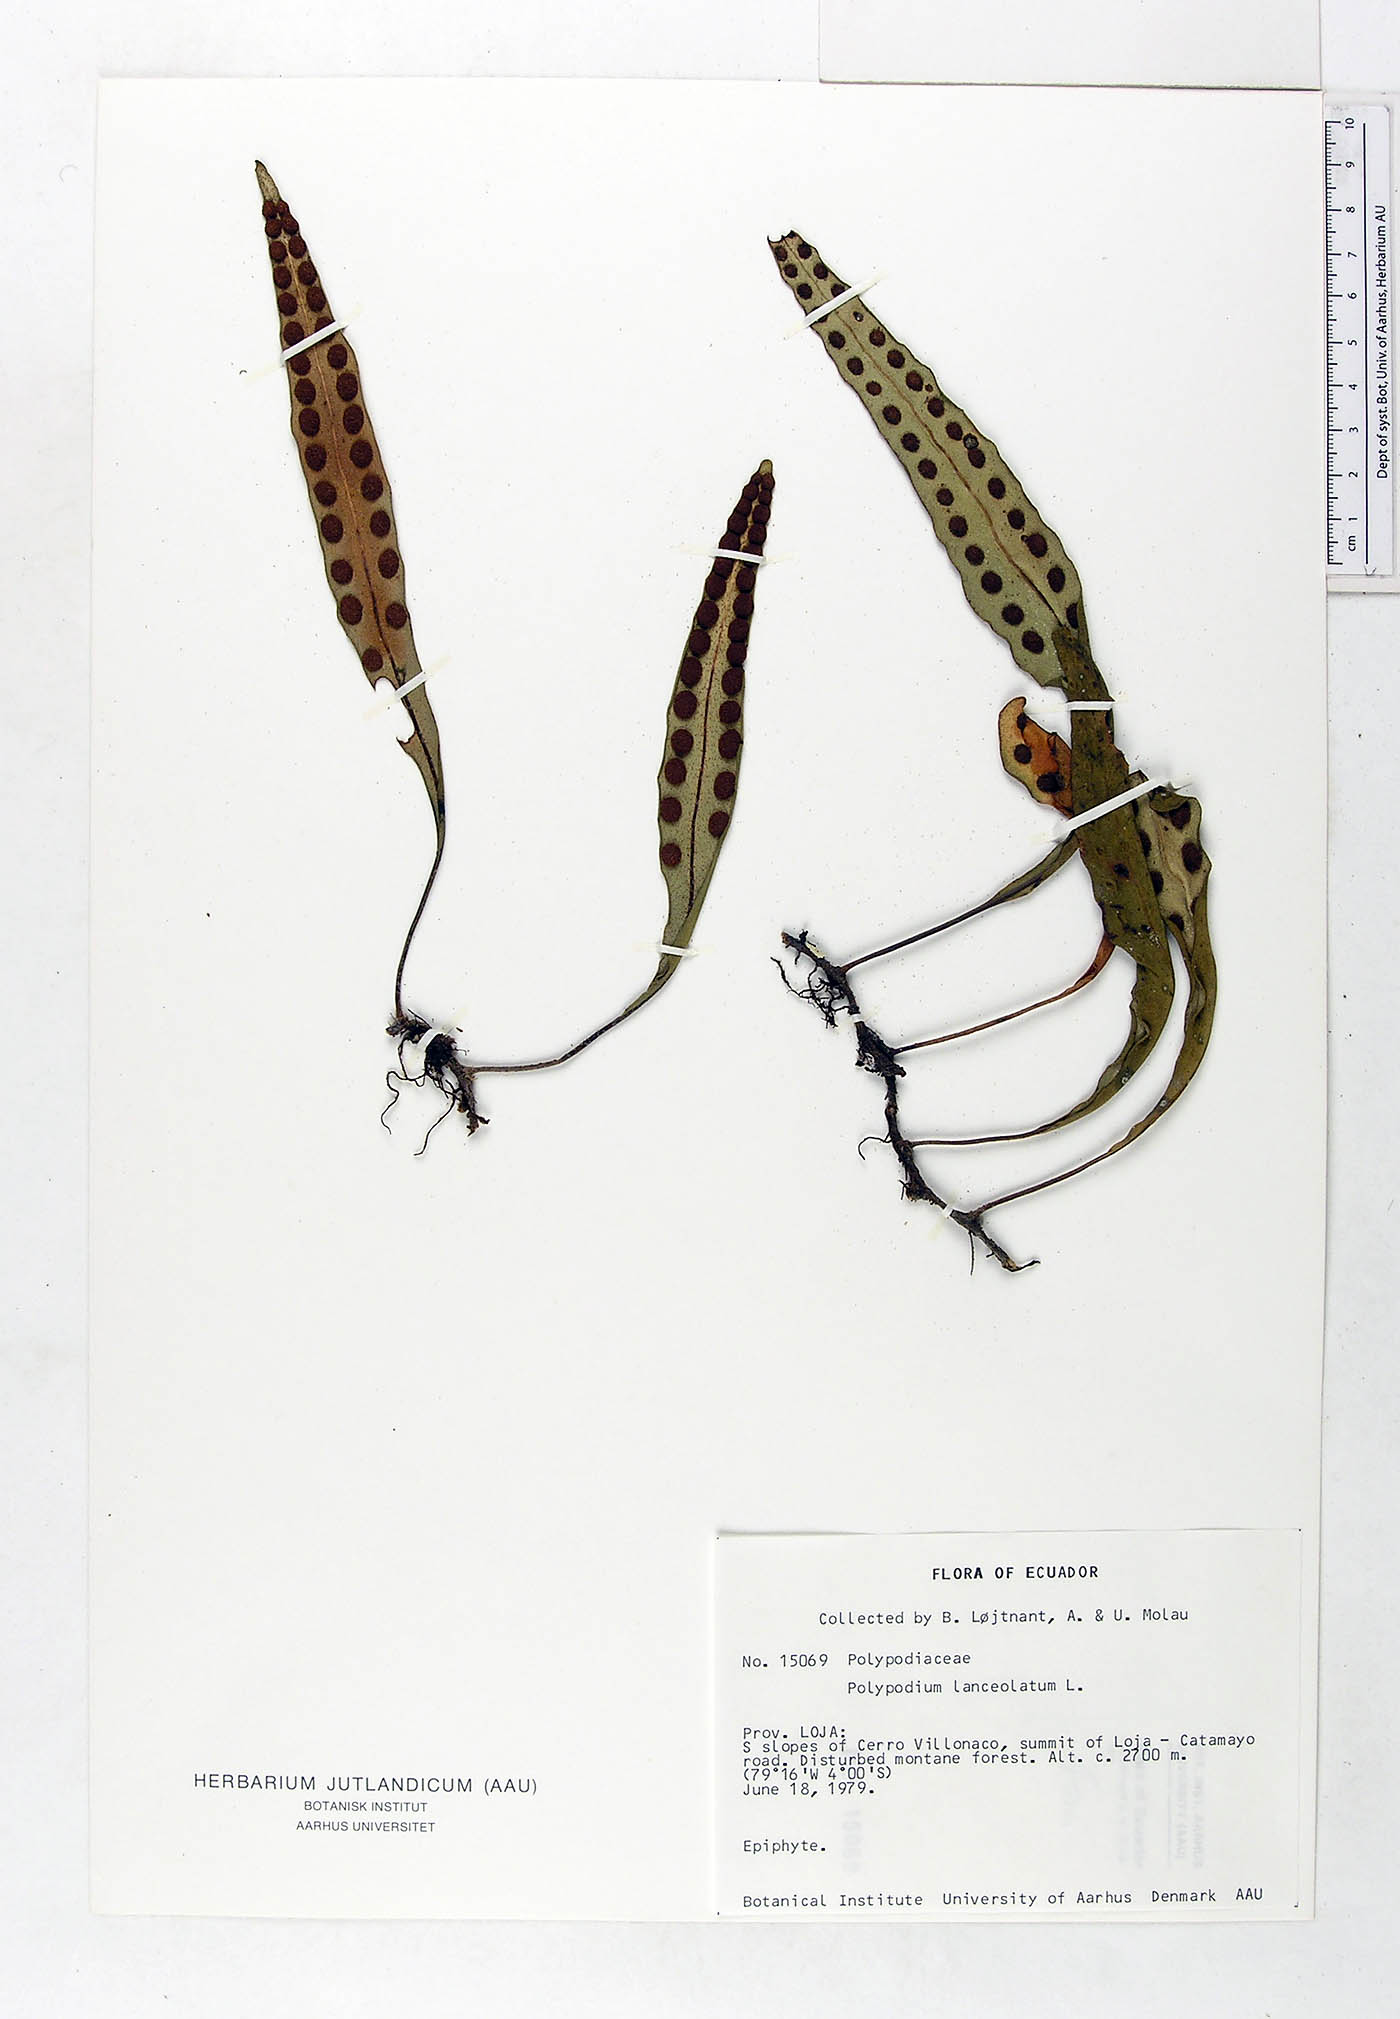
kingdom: Plantae
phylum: Tracheophyta
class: Polypodiopsida
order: Polypodiales
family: Polypodiaceae
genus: Pleopeltis
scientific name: Pleopeltis macrocarpa
